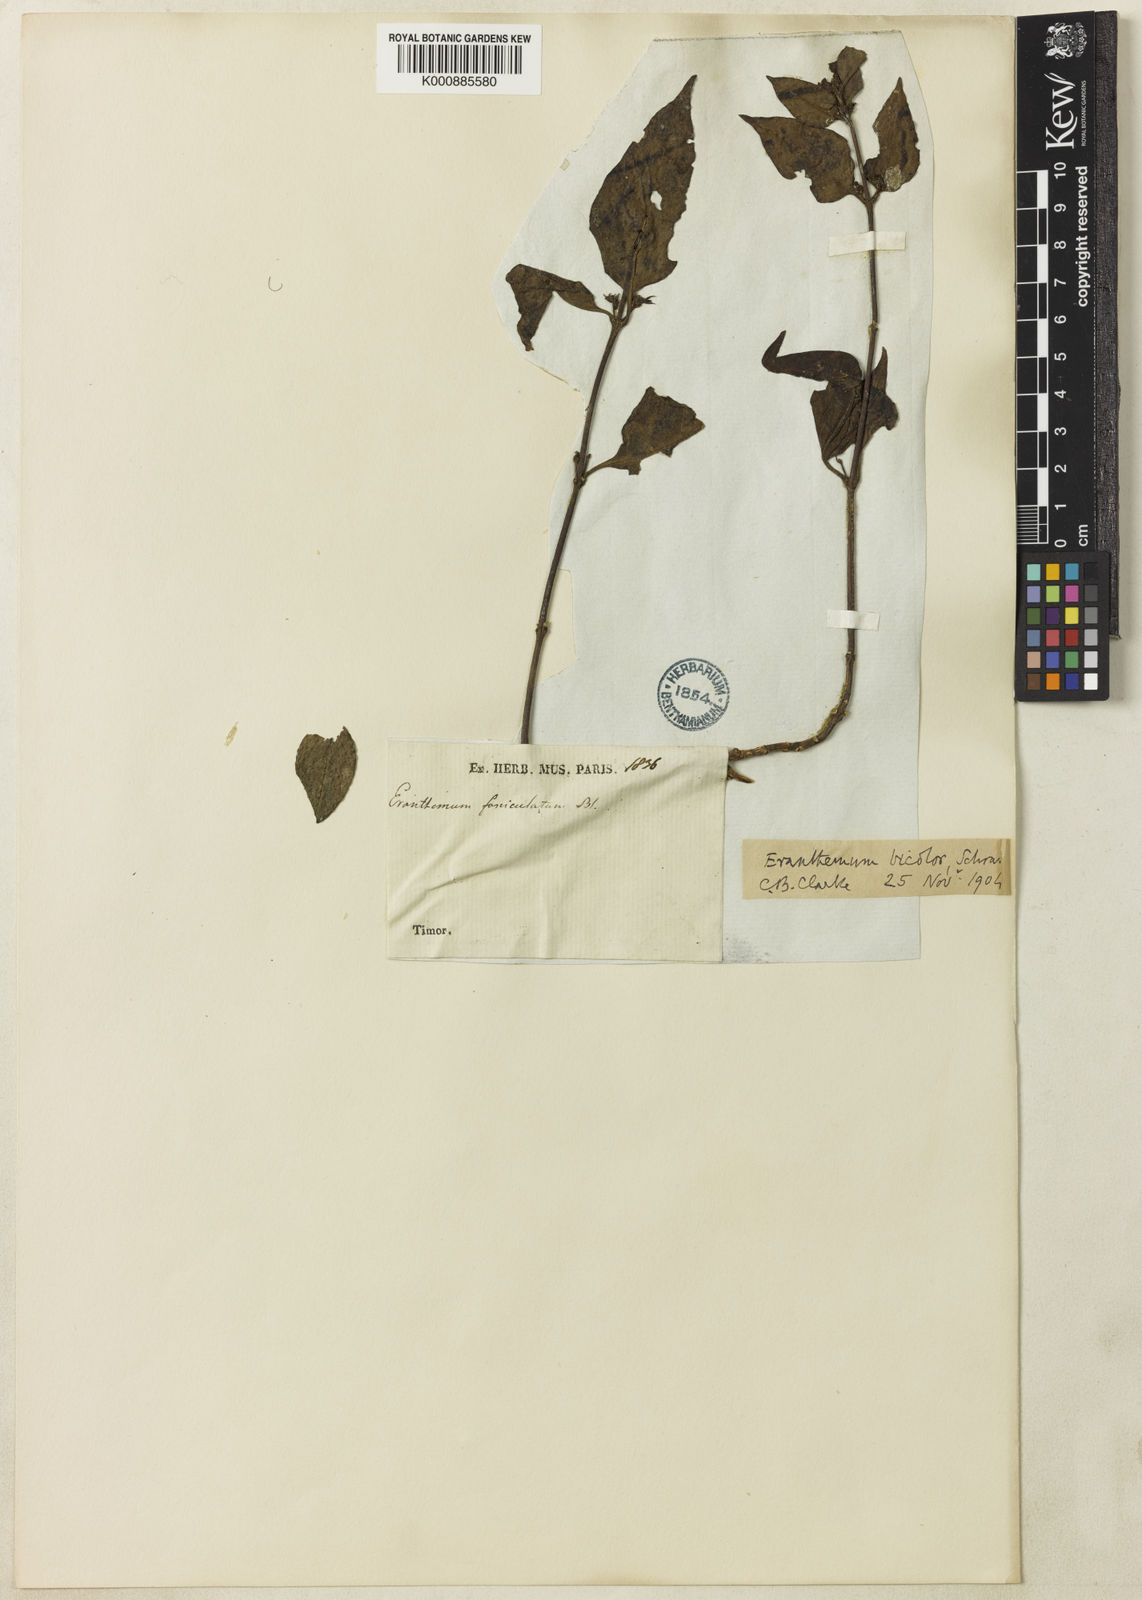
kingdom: Plantae
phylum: Tracheophyta
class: Magnoliopsida
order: Lamiales
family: Acanthaceae
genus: Pseuderanthemum
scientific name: Pseuderanthemum bicolor
